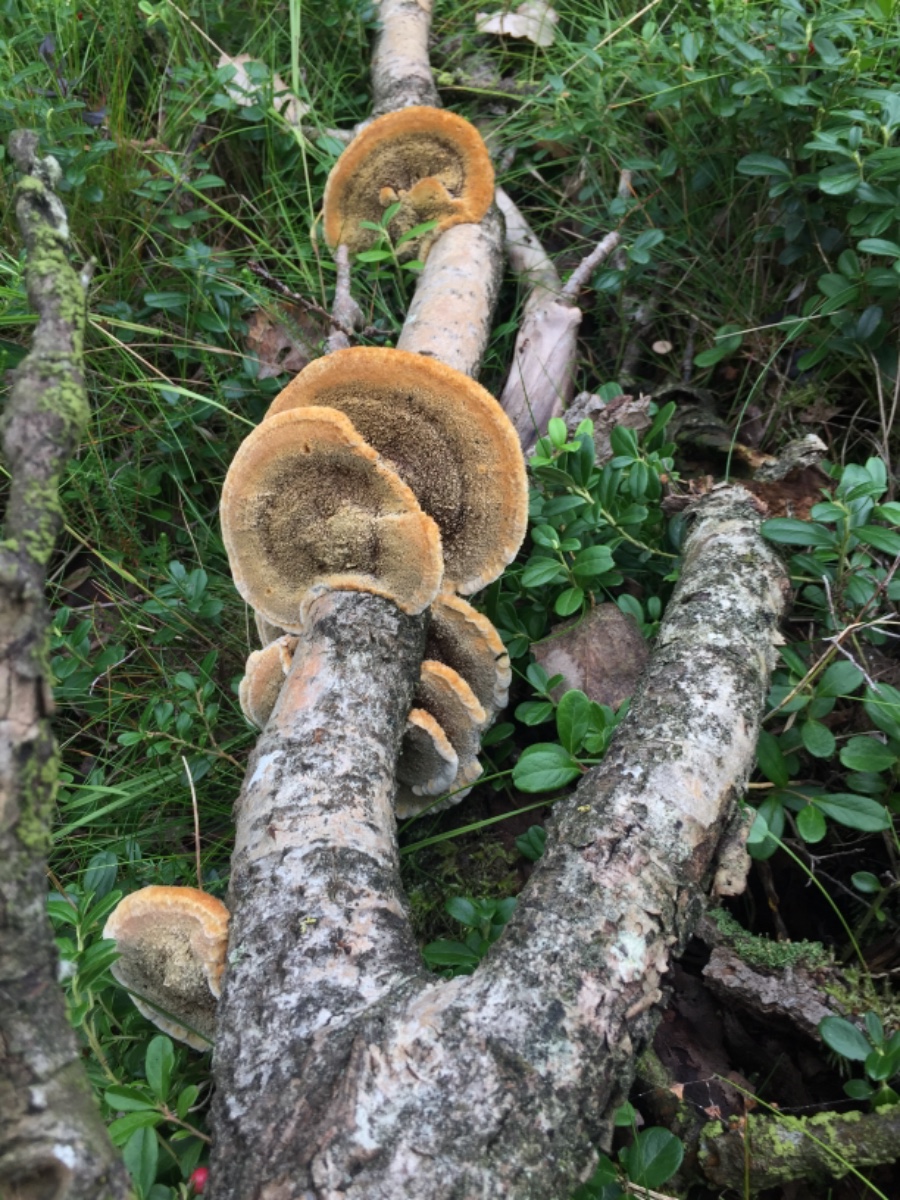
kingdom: Fungi
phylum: Basidiomycota
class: Agaricomycetes
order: Hymenochaetales
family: Hymenochaetaceae
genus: Inocutis
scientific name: Inocutis rheades
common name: ræve-spejlporesvamp
